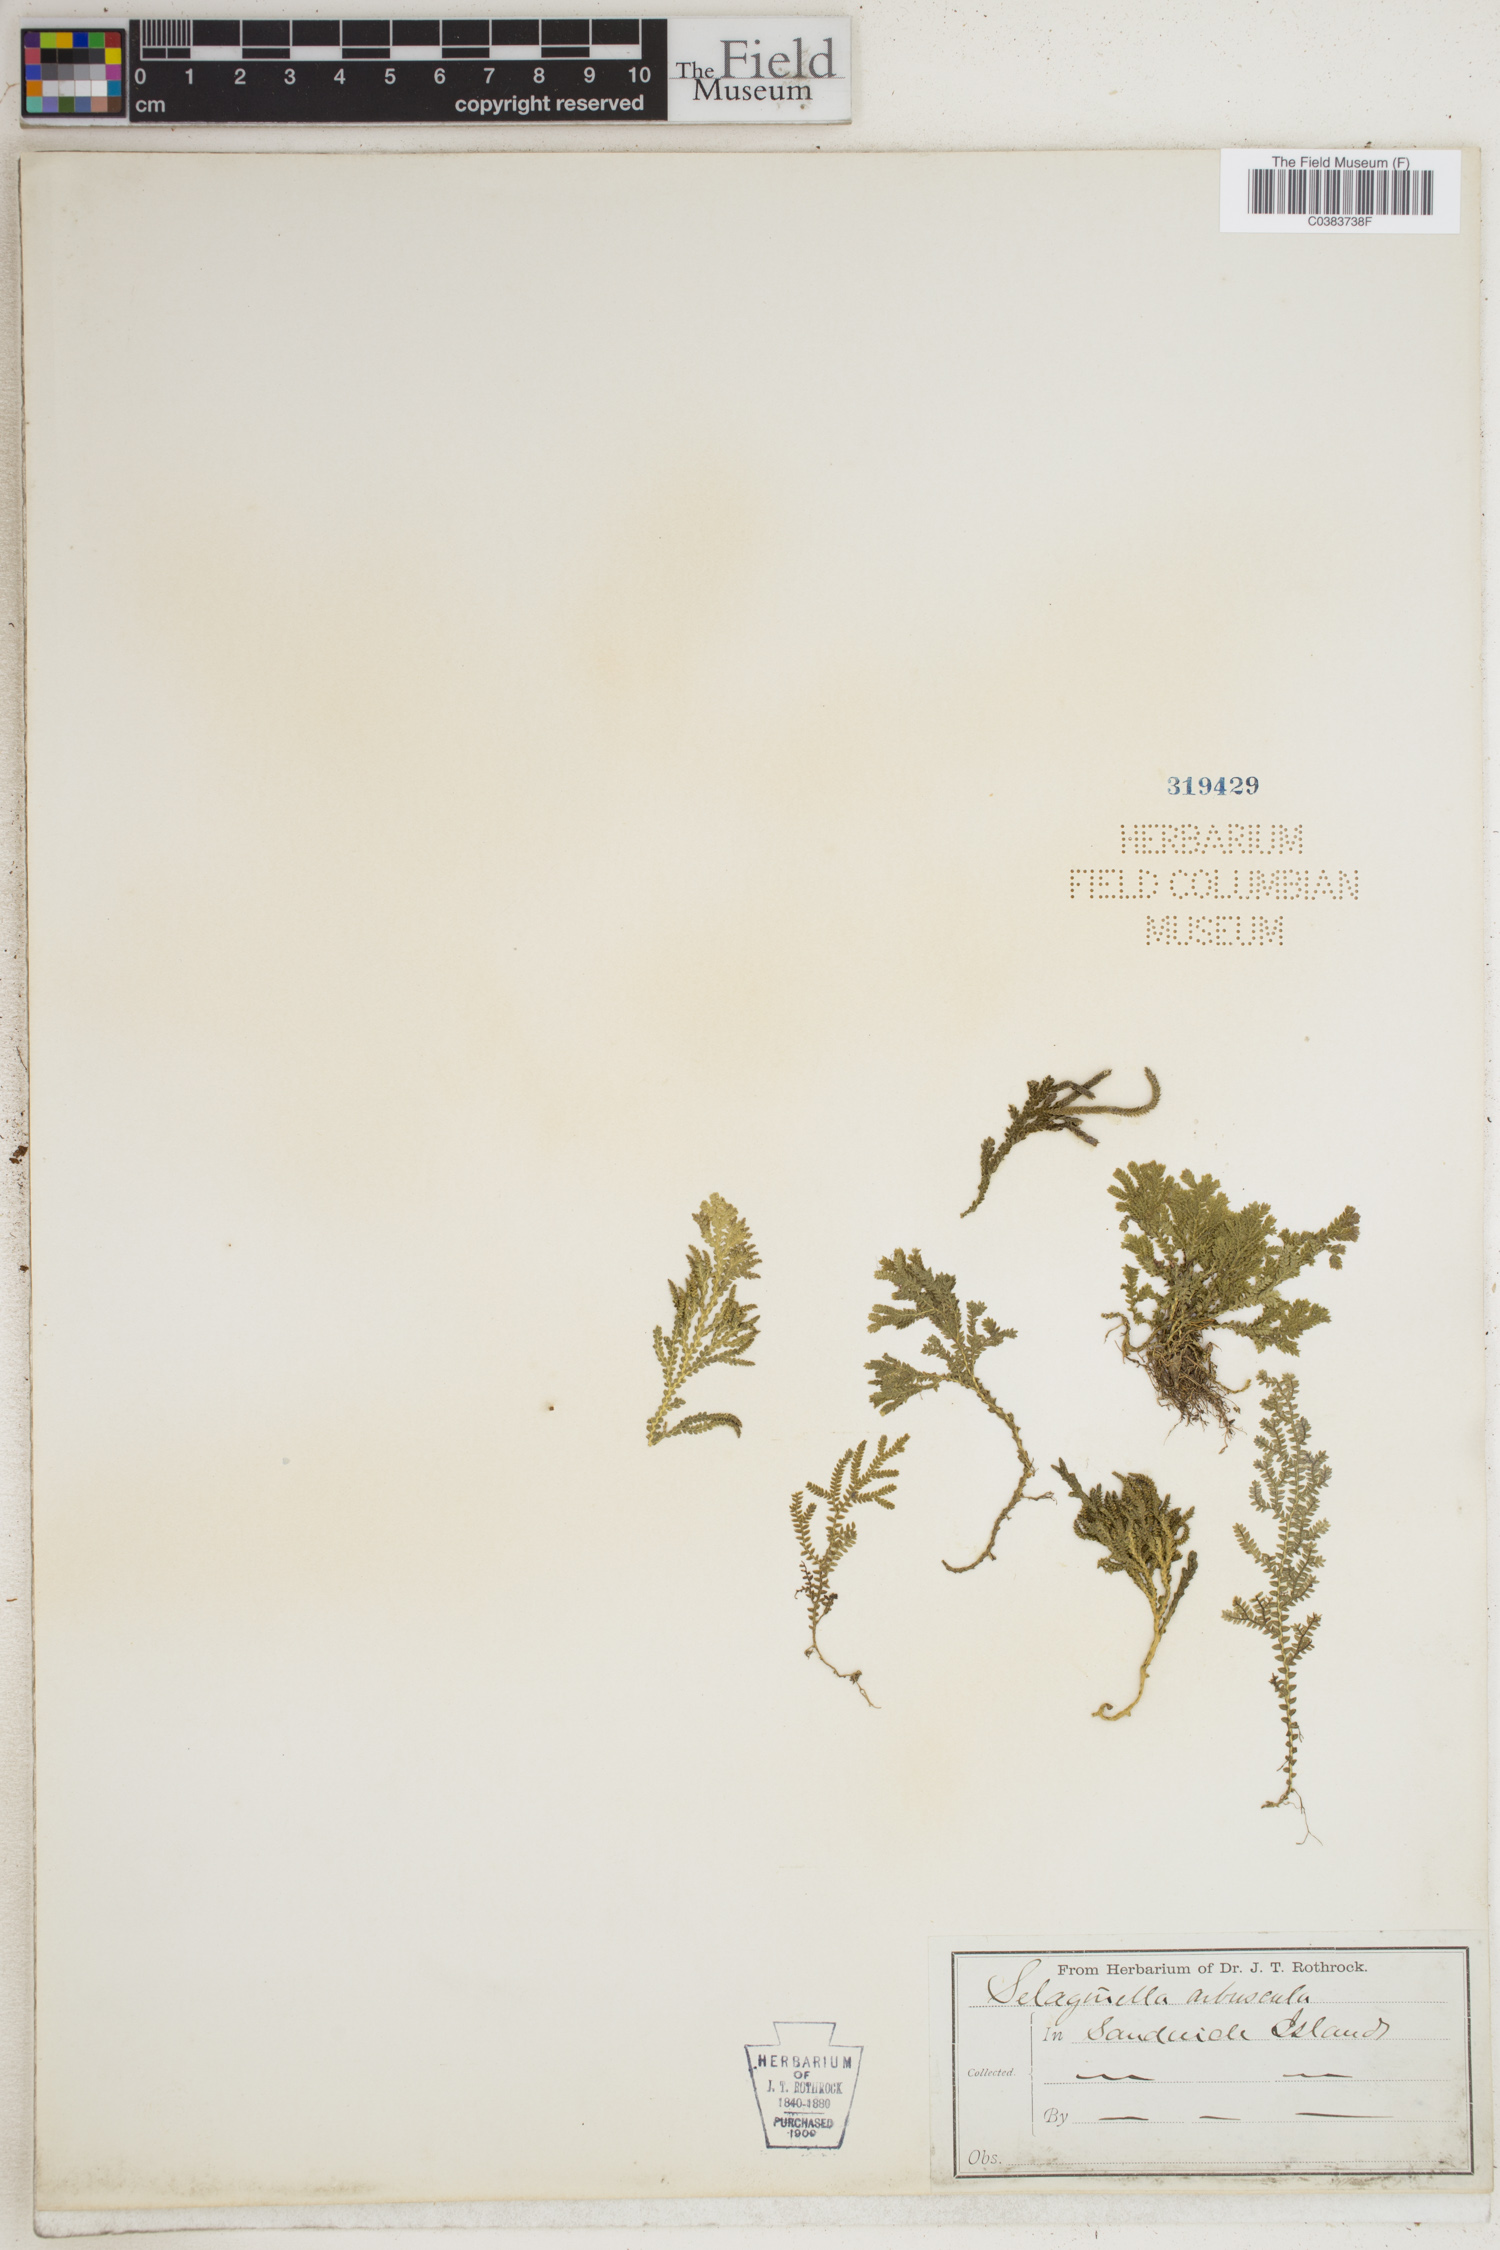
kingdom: Plantae
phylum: Tracheophyta
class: Lycopodiopsida
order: Selaginellales
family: Selaginellaceae
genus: Selaginella
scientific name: Selaginella arbuscula
